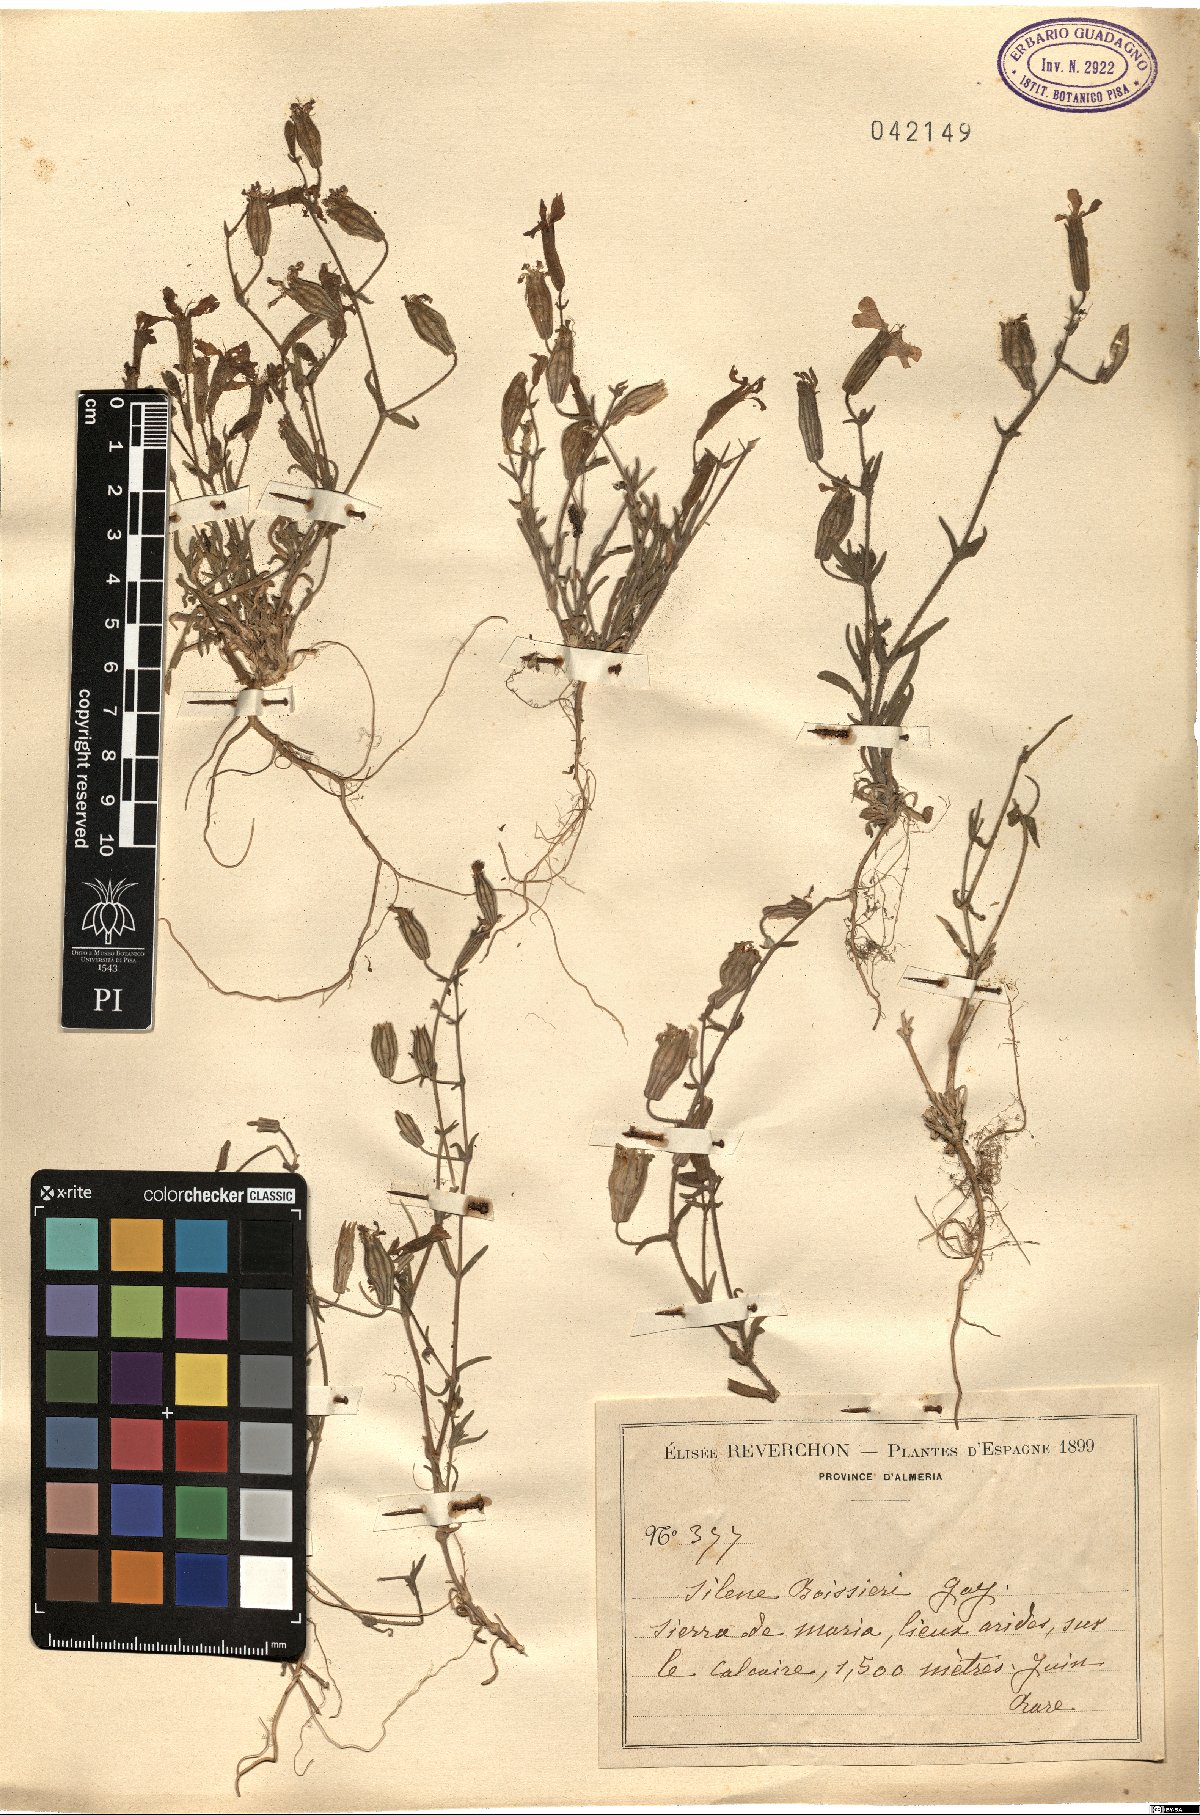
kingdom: Plantae
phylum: Tracheophyta
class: Magnoliopsida
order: Caryophyllales
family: Caryophyllaceae
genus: Silene
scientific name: Silene germana
